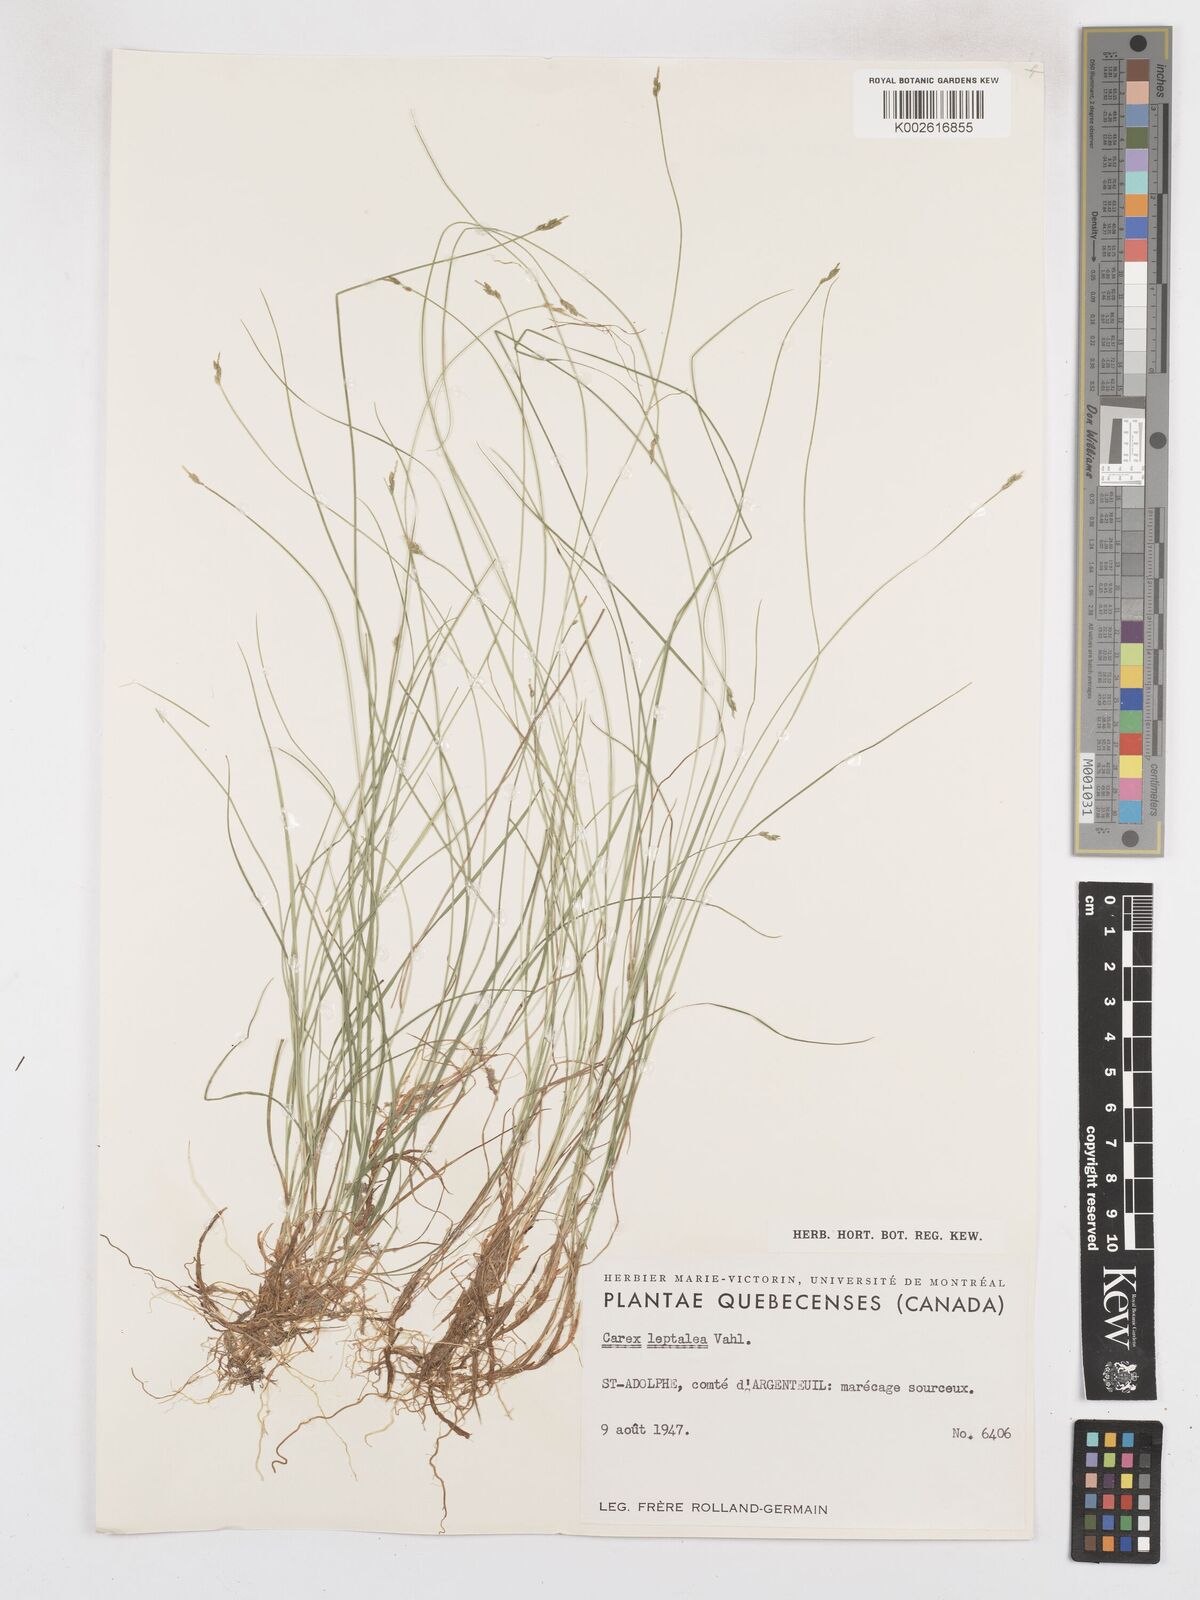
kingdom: Plantae
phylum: Tracheophyta
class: Liliopsida
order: Poales
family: Cyperaceae
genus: Carex
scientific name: Carex leptalea
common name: Bristly-stalked sedge
